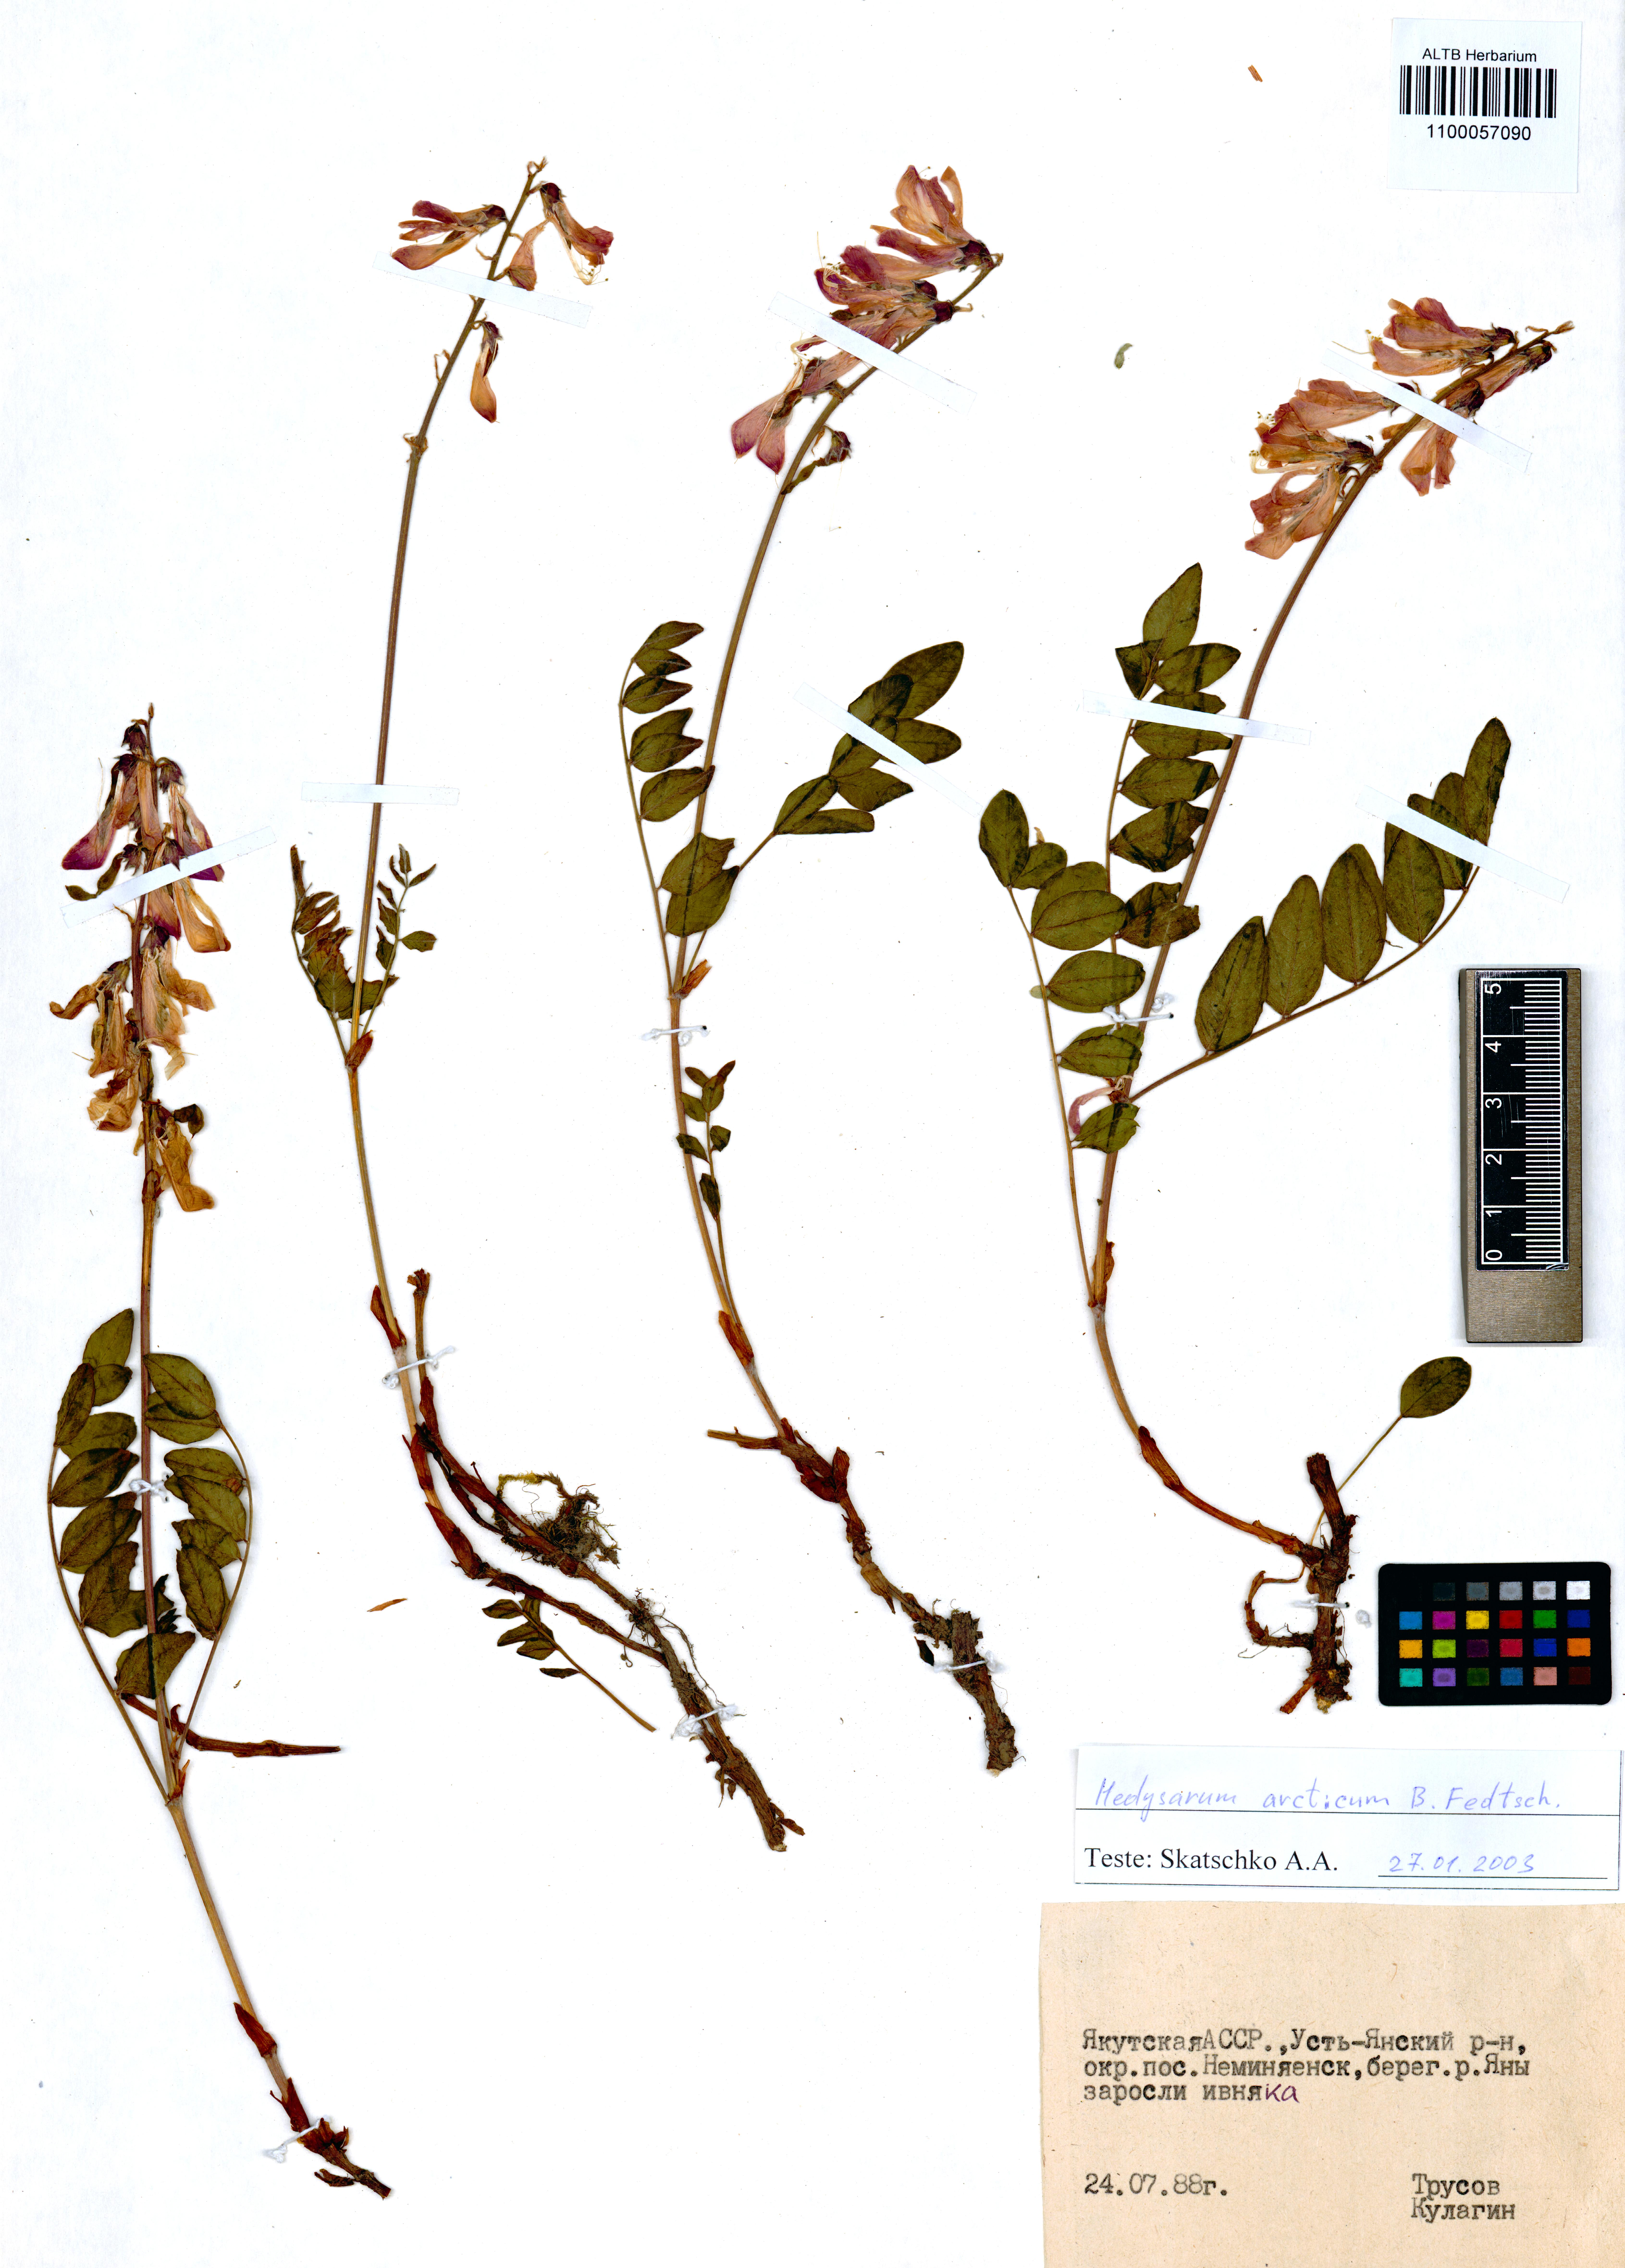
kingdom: Plantae
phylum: Tracheophyta
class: Magnoliopsida
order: Fabales
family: Fabaceae
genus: Hedysarum
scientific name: Hedysarum hedysaroides
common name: Alpine french-honeysuckle
